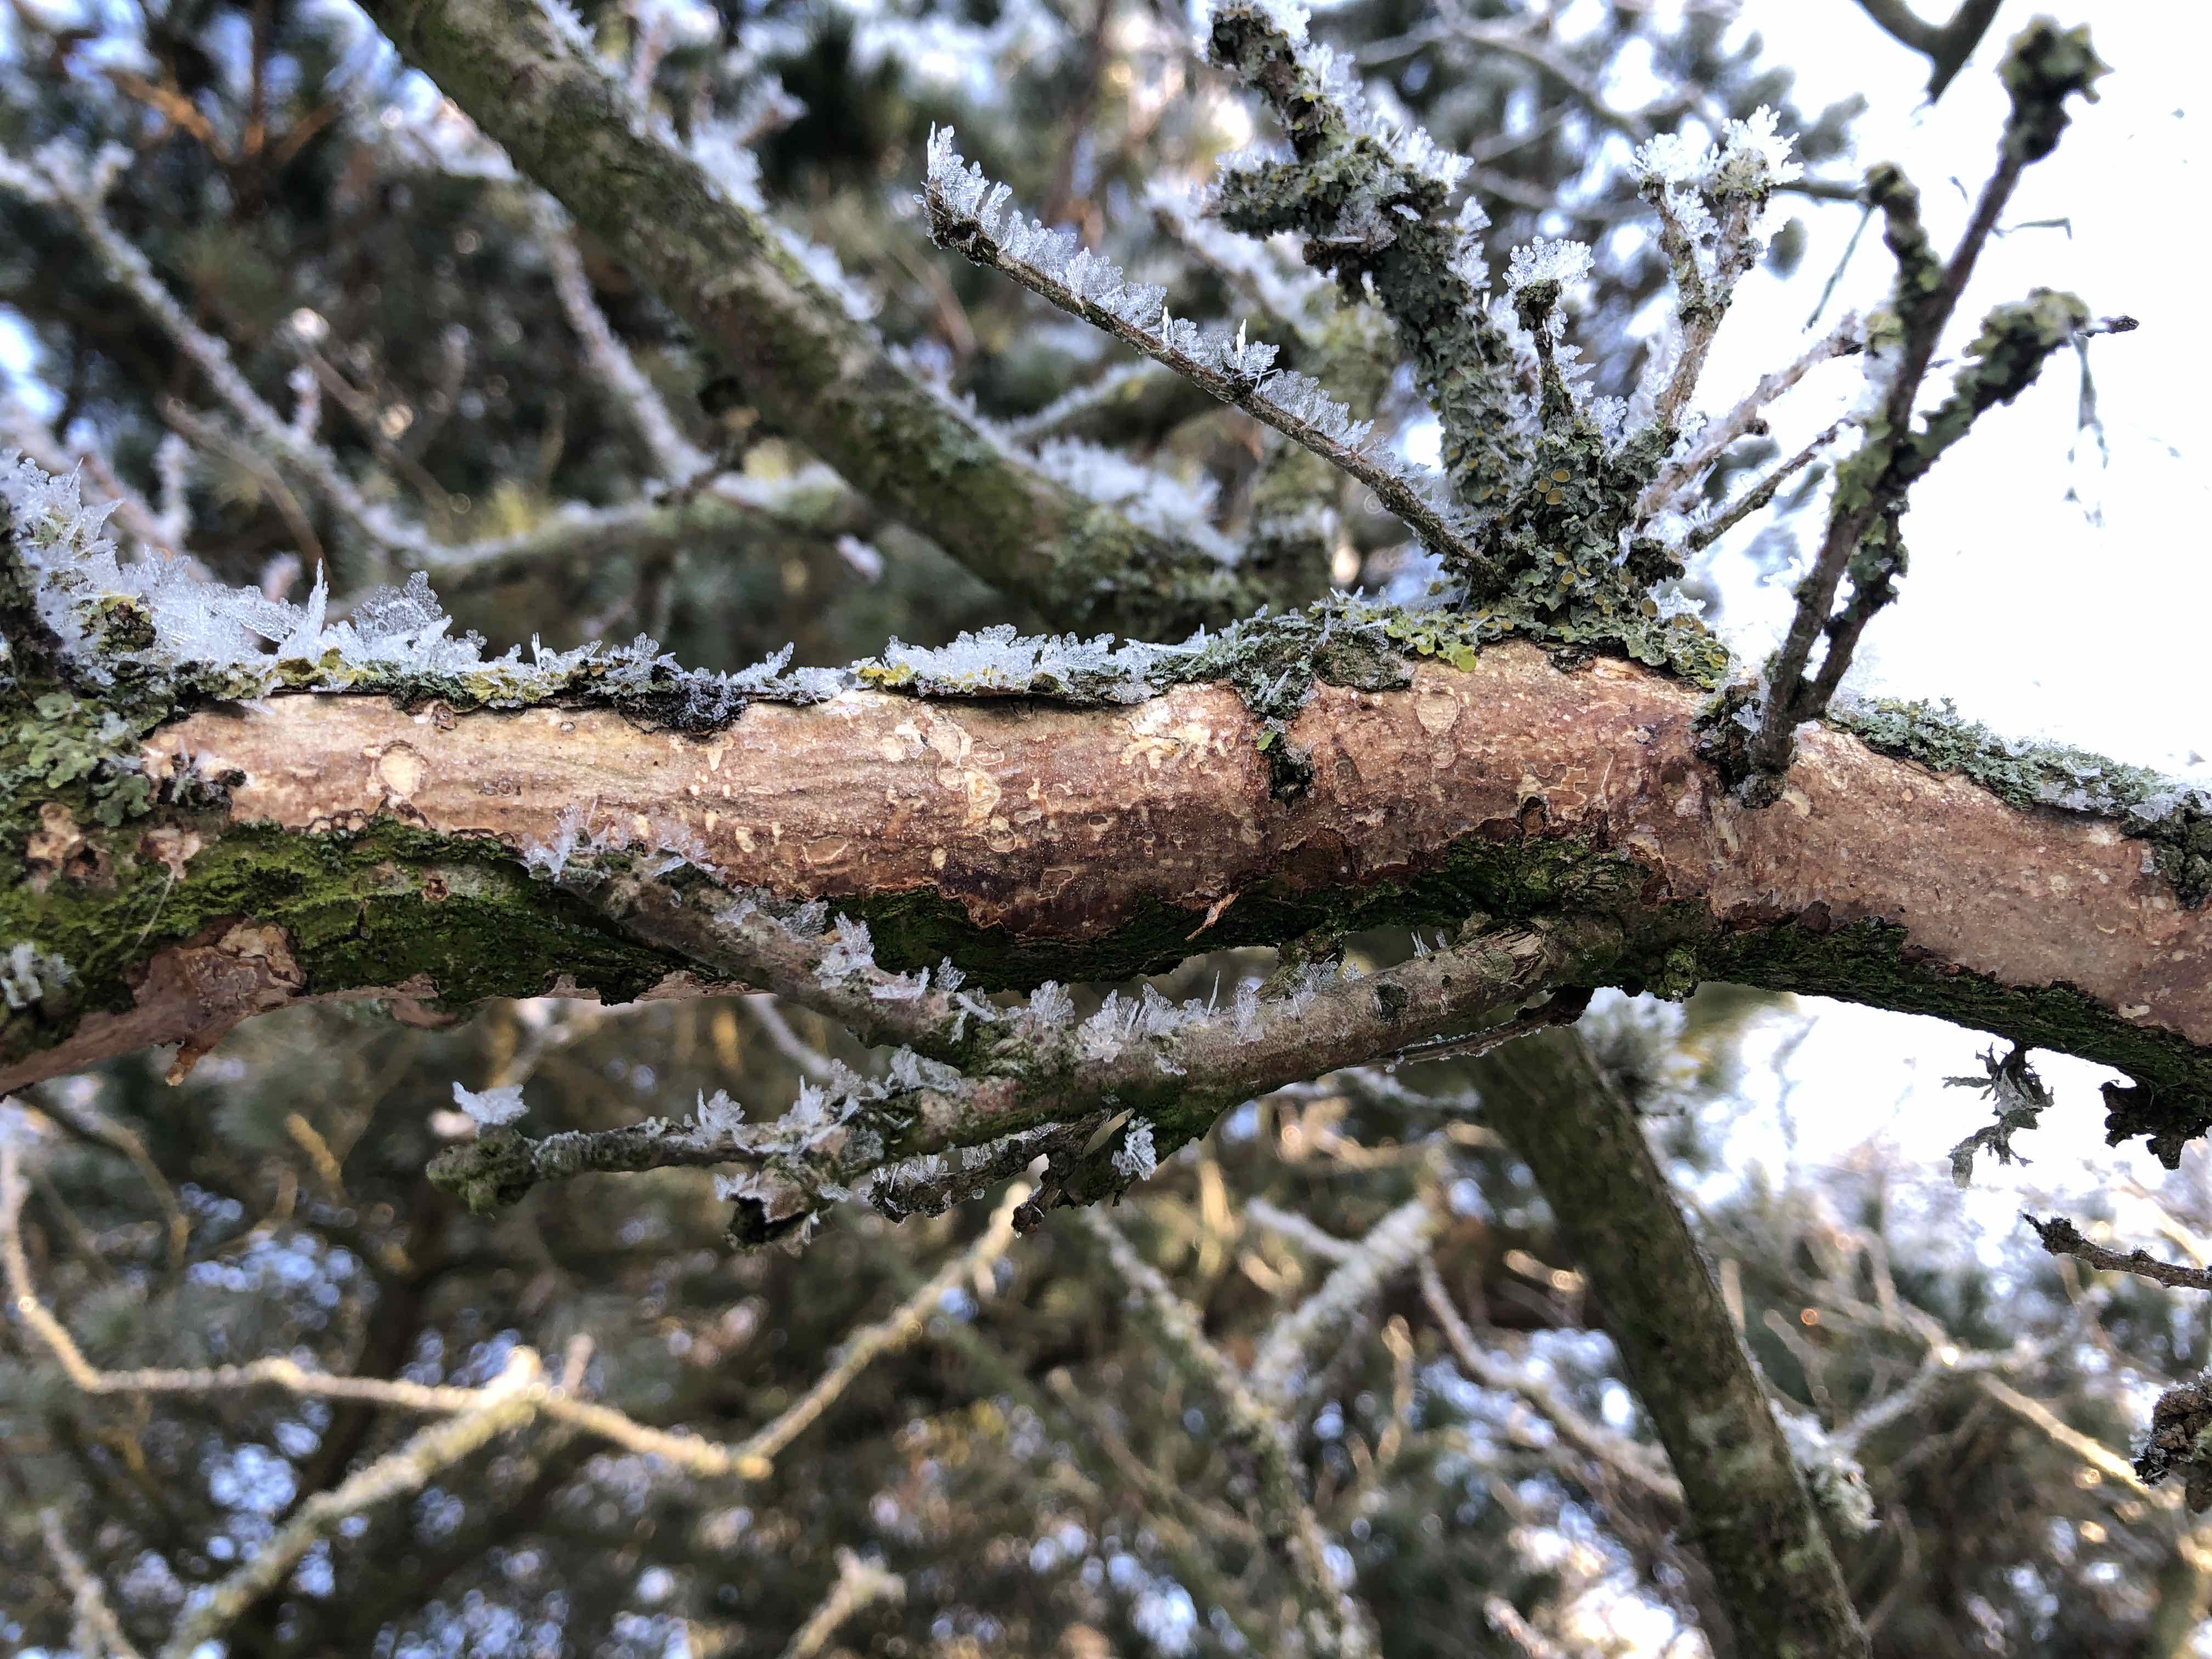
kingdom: Fungi
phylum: Basidiomycota
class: Agaricomycetes
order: Corticiales
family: Vuilleminiaceae
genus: Vuilleminia
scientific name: Vuilleminia comedens
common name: almindelig barksprænger
